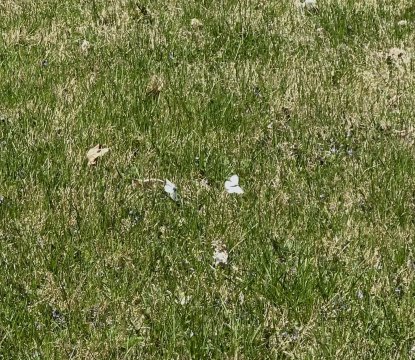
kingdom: Animalia
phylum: Arthropoda
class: Insecta
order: Lepidoptera
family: Pieridae
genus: Pieris
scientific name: Pieris rapae
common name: Cabbage White
